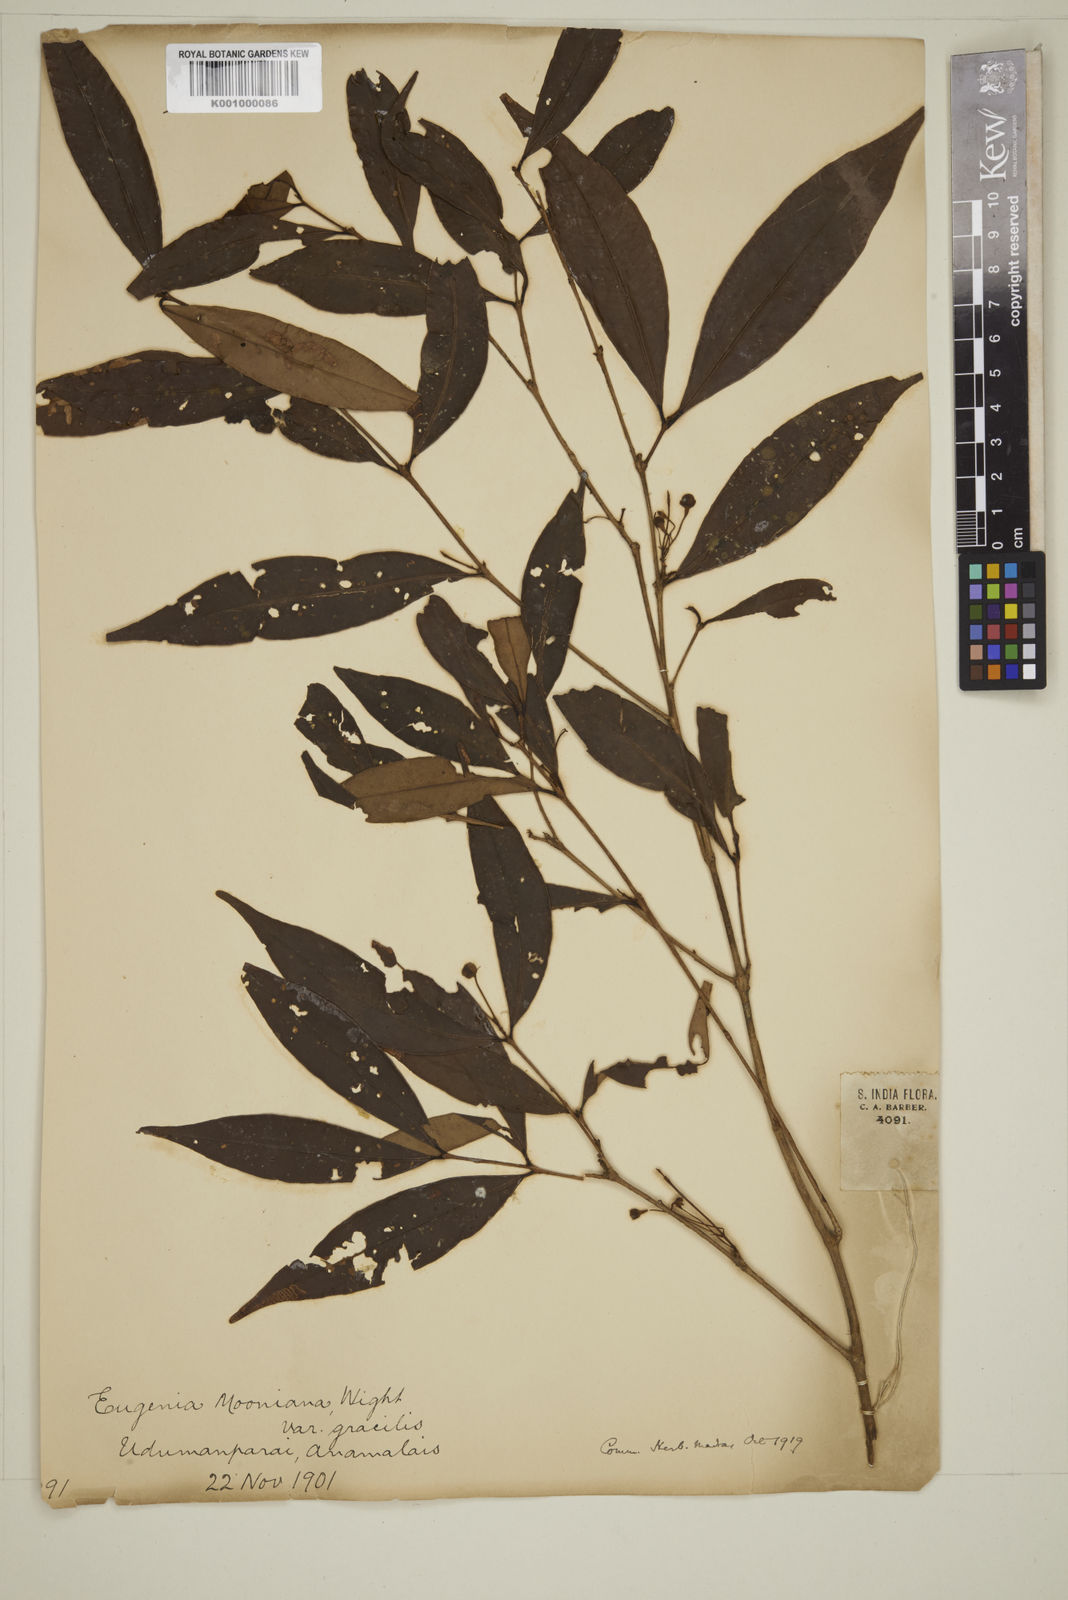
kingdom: Plantae
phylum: Tracheophyta
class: Magnoliopsida
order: Myrtales
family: Myrtaceae
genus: Eugenia
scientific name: Eugenia thwaitesii
